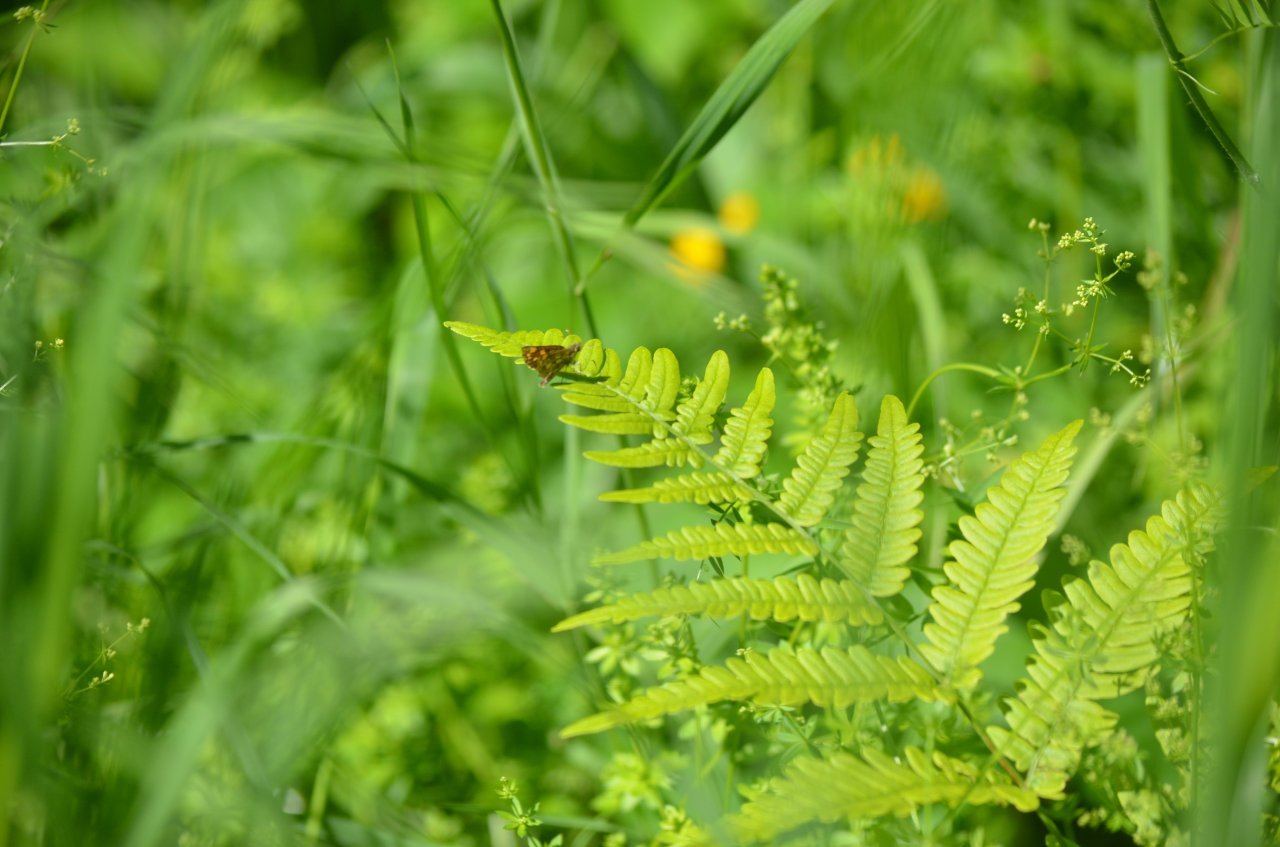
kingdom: Animalia
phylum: Arthropoda
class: Insecta
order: Lepidoptera
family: Hesperiidae
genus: Carterocephalus
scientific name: Carterocephalus palaemon
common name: Chequered Skipper
